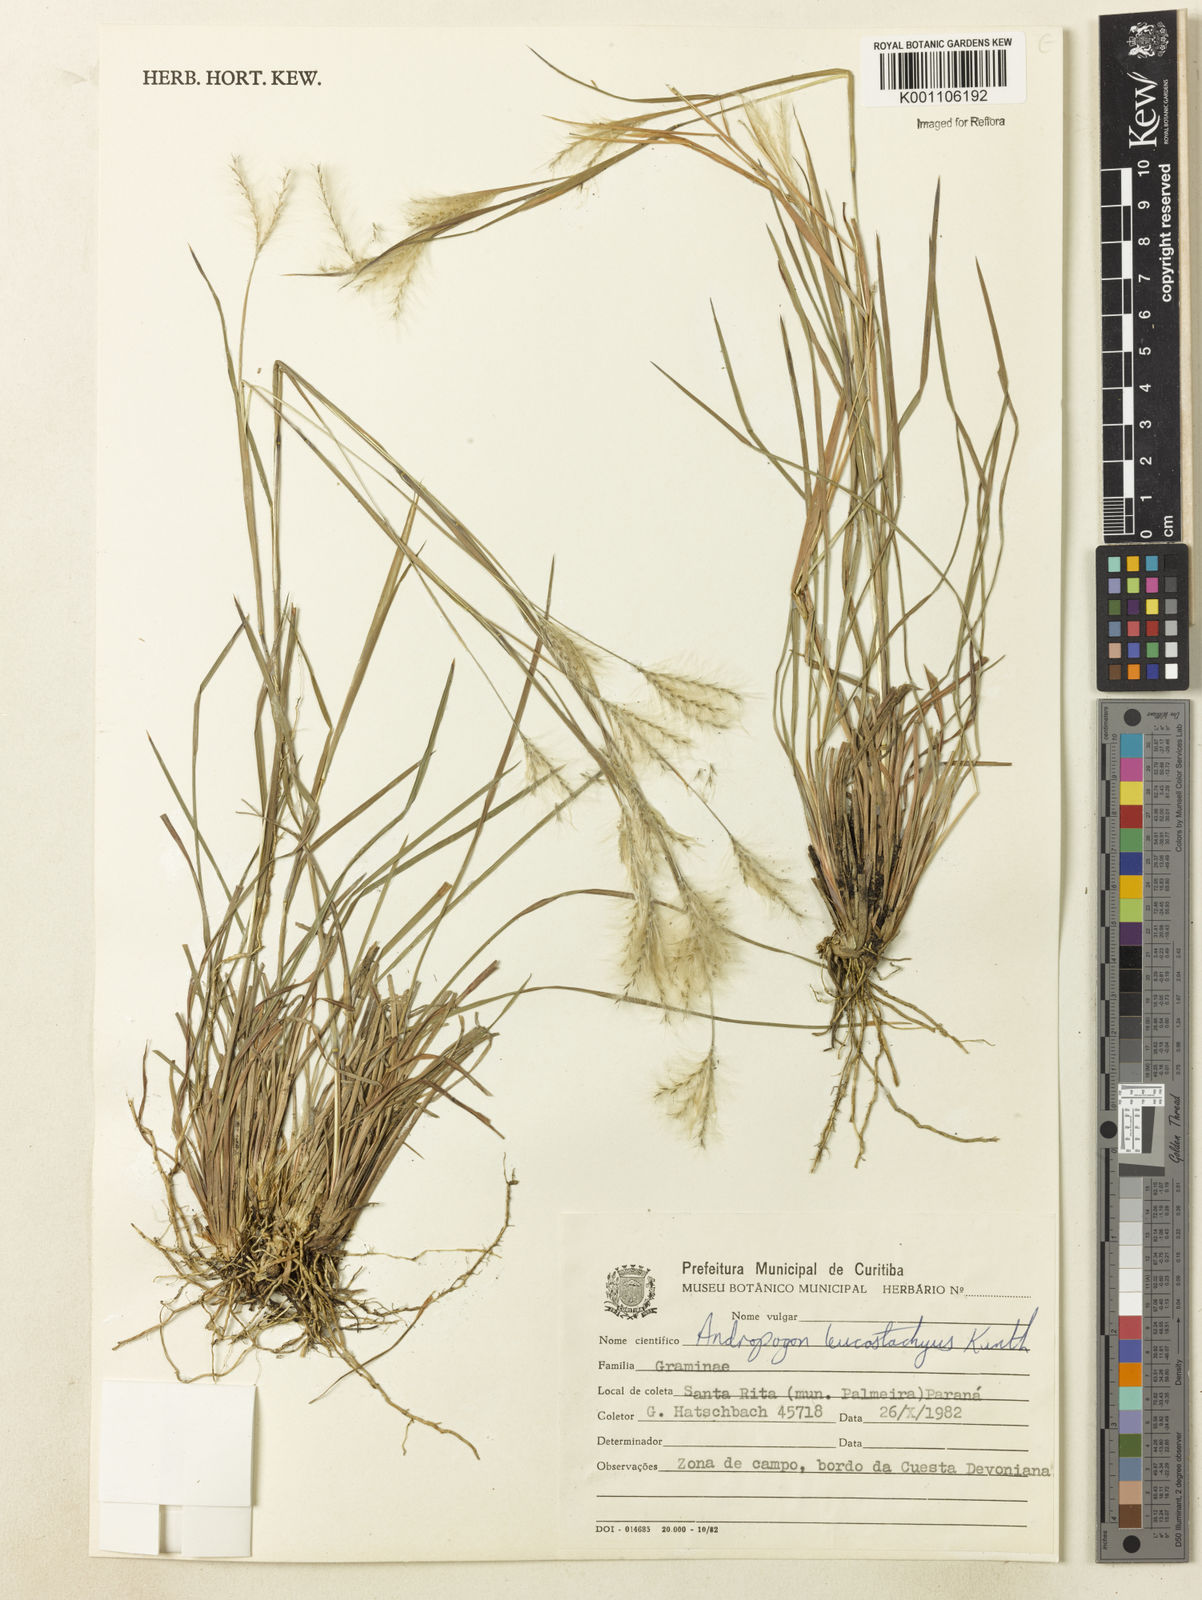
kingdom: Plantae
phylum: Tracheophyta
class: Liliopsida
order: Poales
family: Poaceae
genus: Andropogon
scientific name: Andropogon leucostachyus
